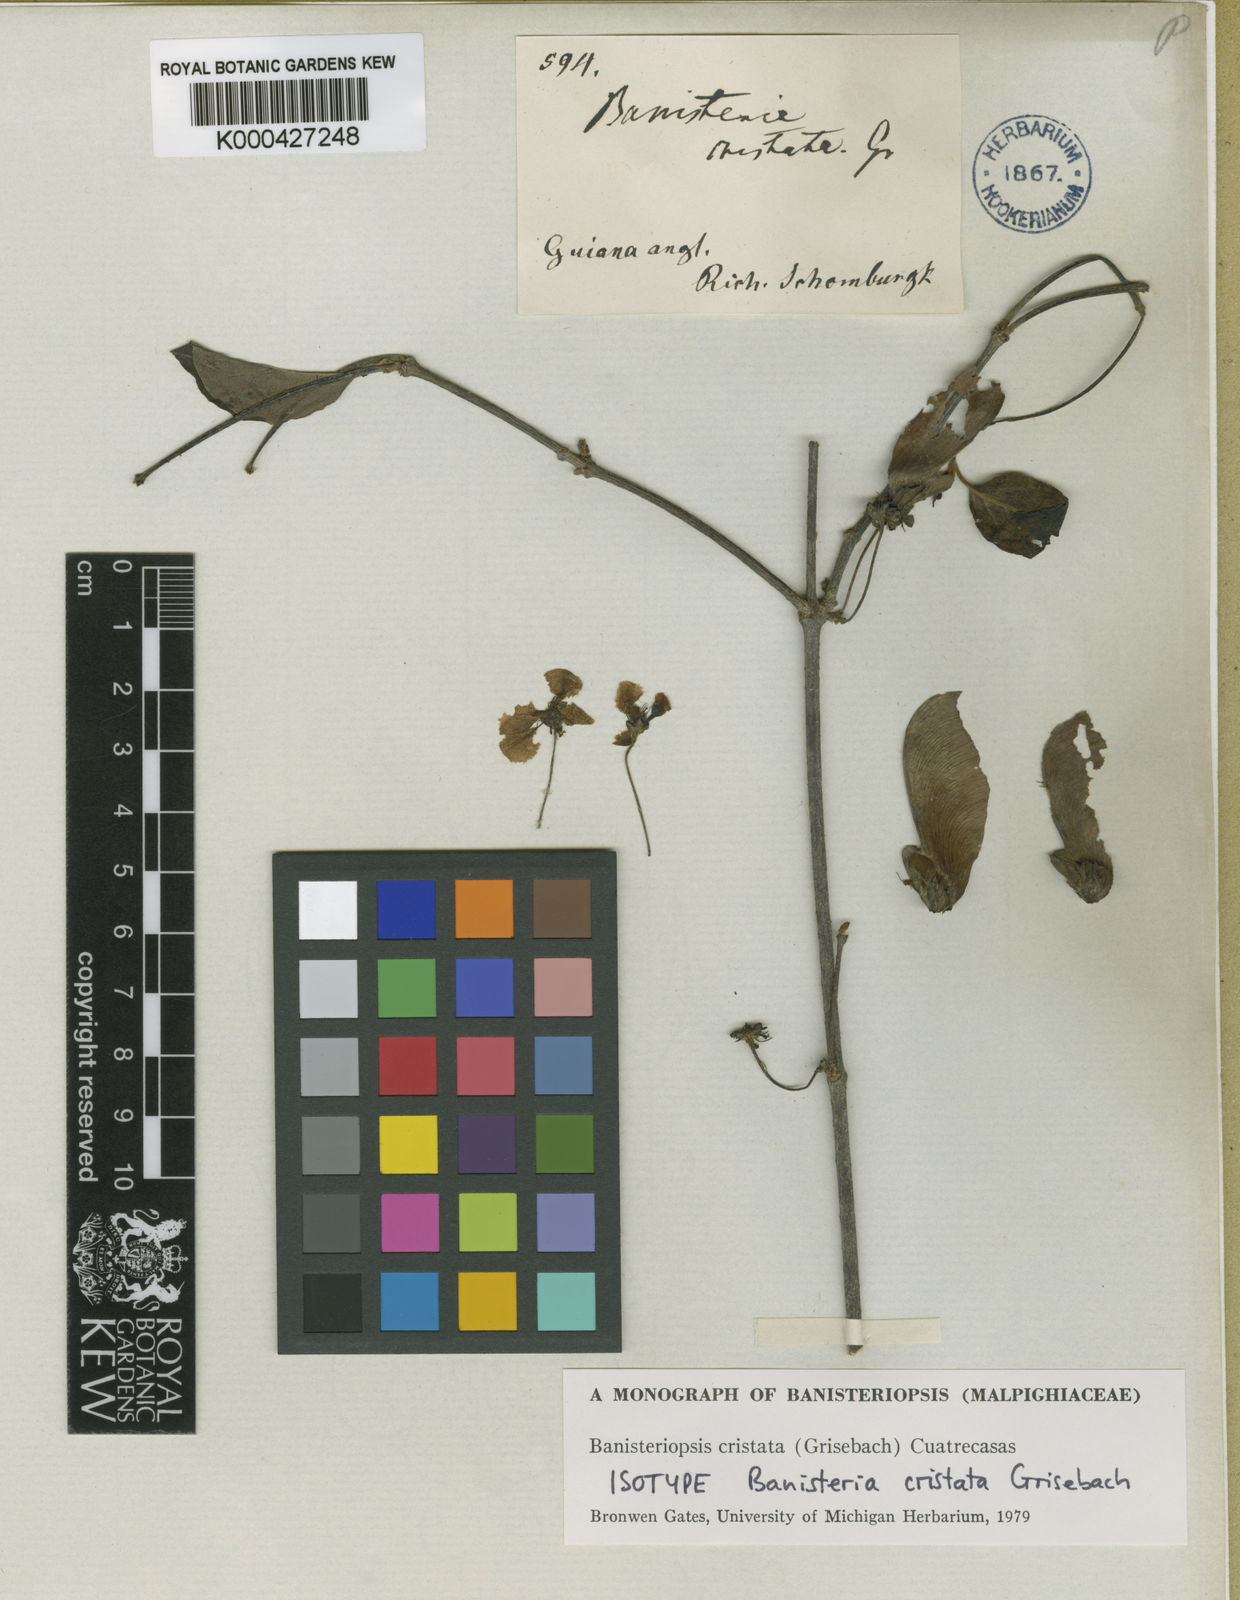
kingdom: Plantae
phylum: Tracheophyta
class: Magnoliopsida
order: Malpighiales
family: Malpighiaceae
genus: Diplopterys
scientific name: Diplopterys cristata
